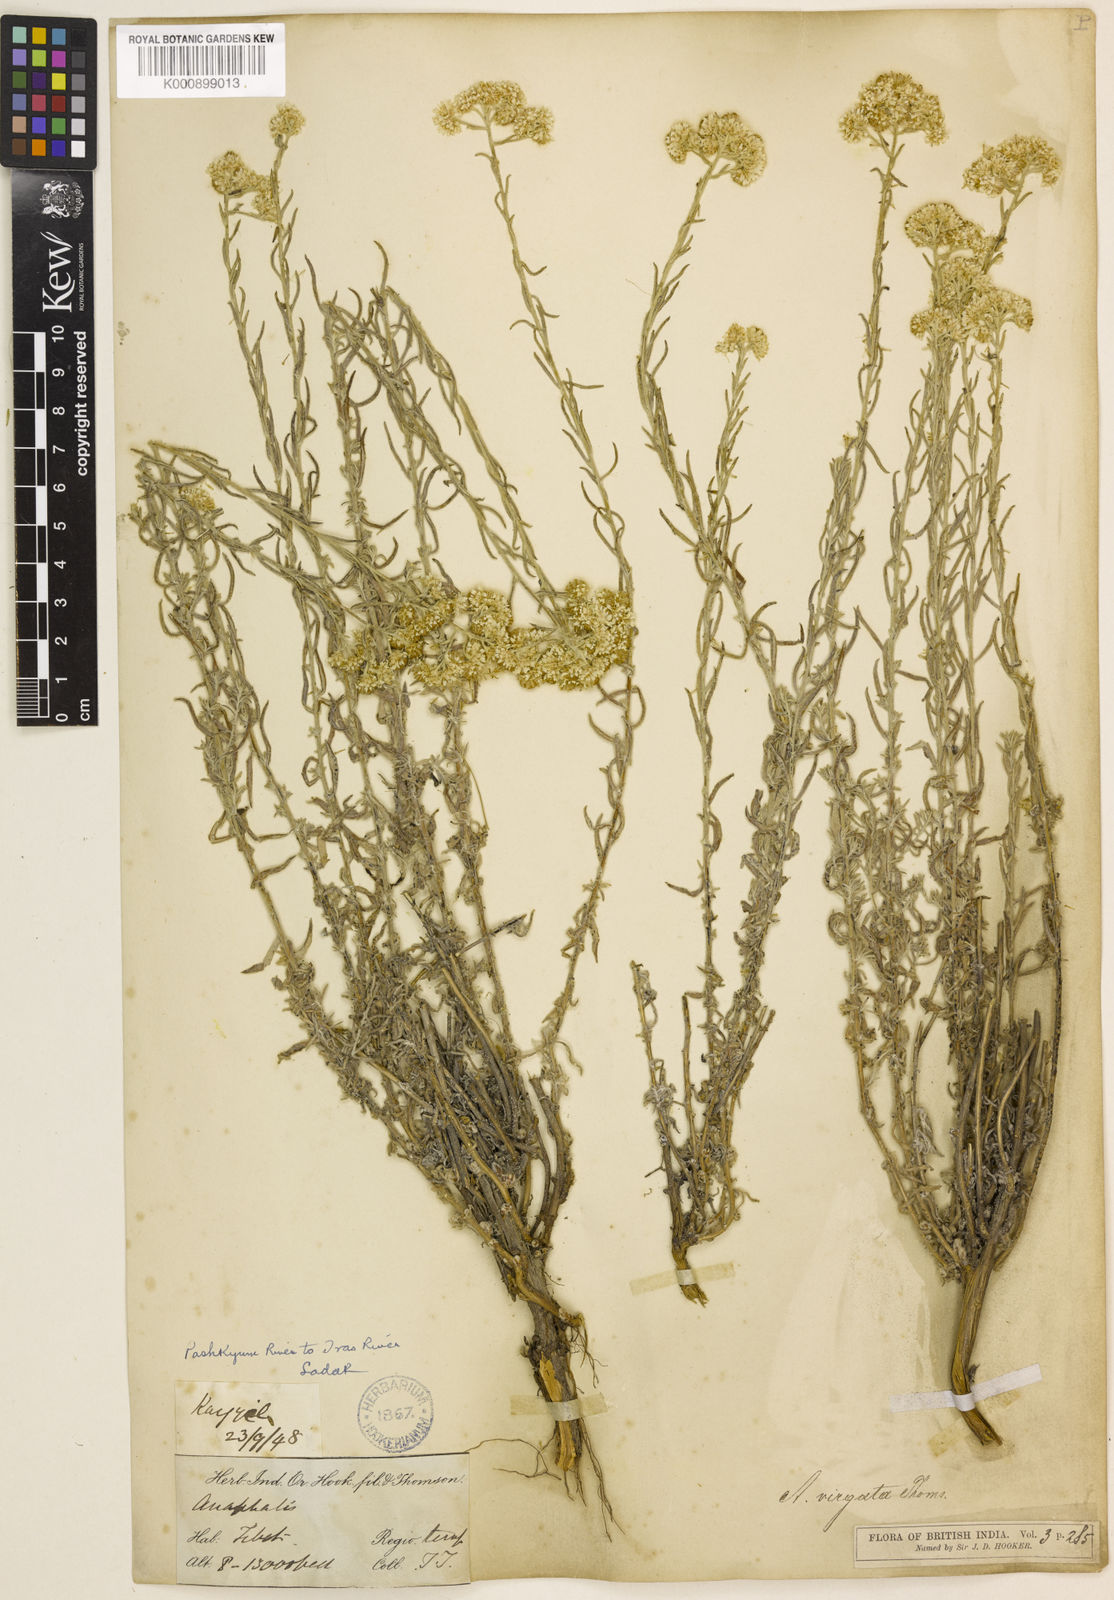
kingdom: Plantae
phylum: Tracheophyta
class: Magnoliopsida
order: Asterales
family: Asteraceae
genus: Anaphalis
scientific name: Anaphalis virgata
